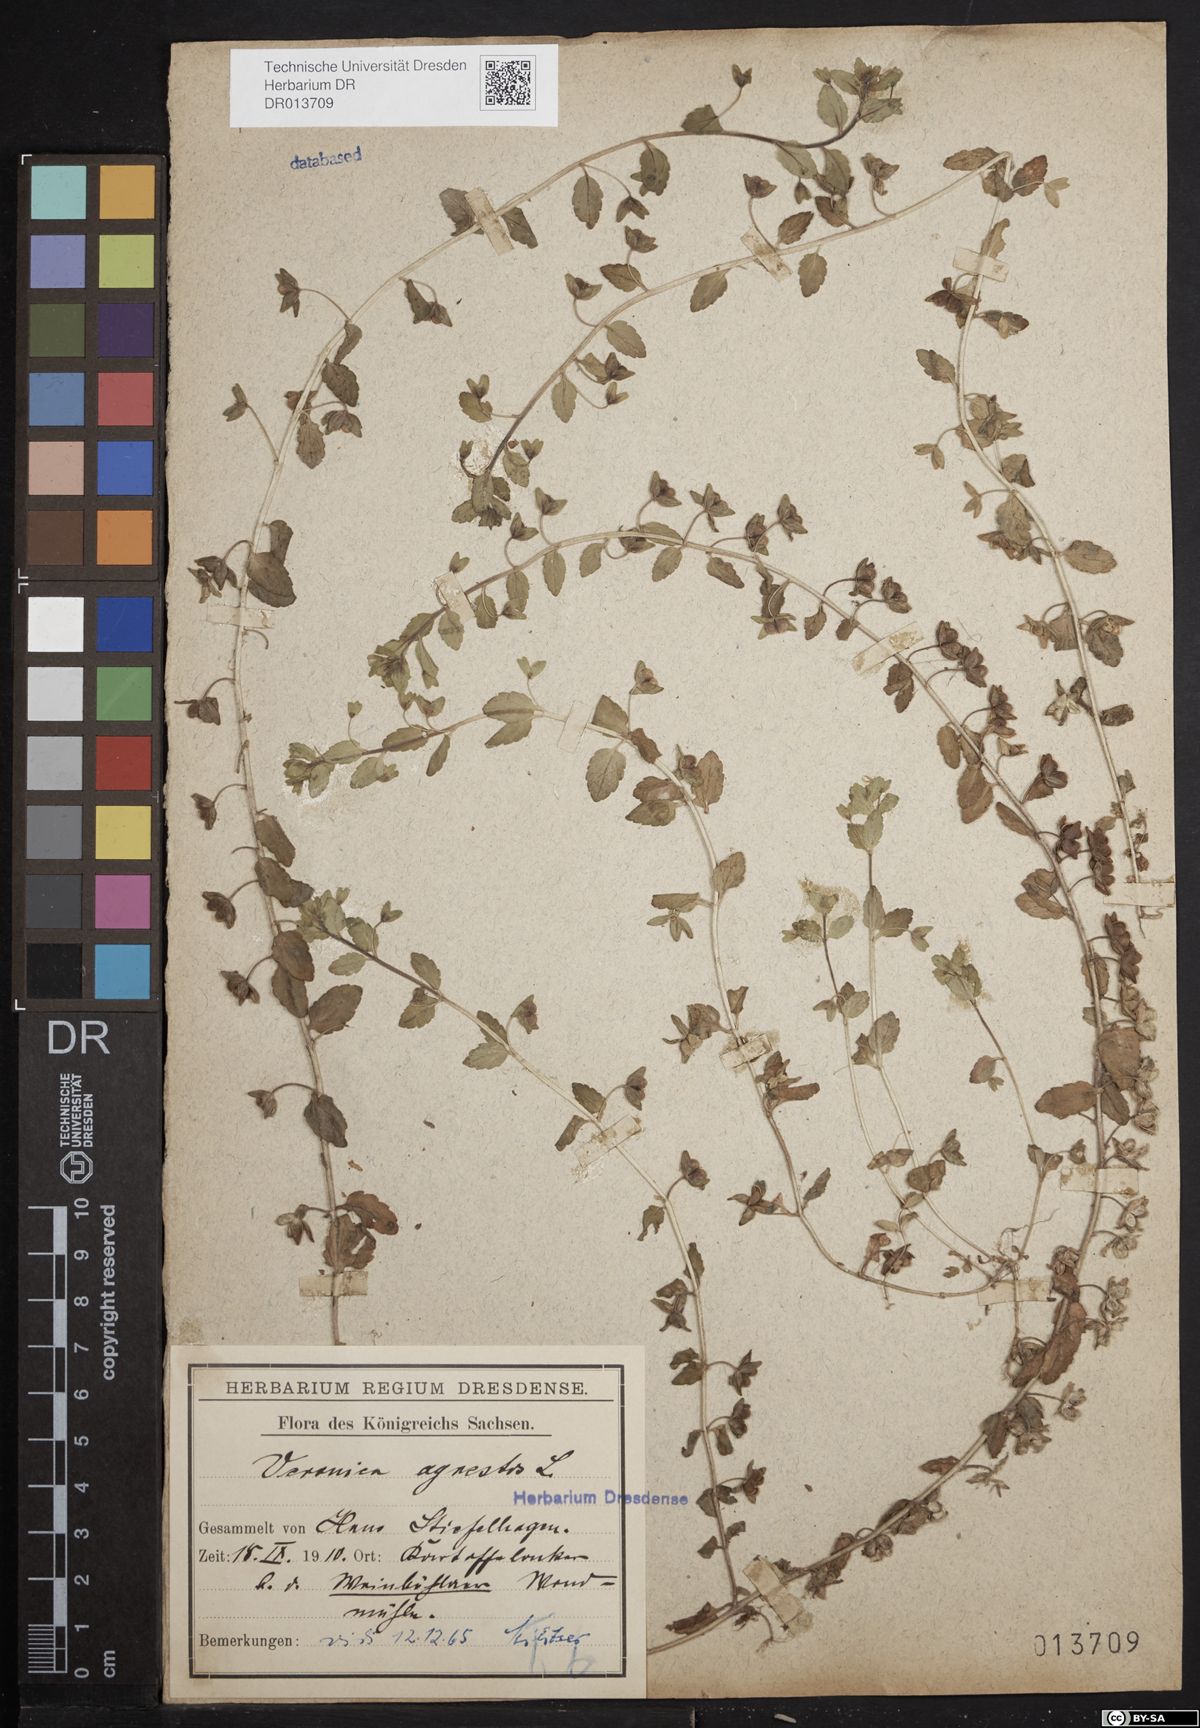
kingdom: Plantae
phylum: Tracheophyta
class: Magnoliopsida
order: Lamiales
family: Plantaginaceae
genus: Veronica
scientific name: Veronica agrestis
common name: Green field-speedwell
